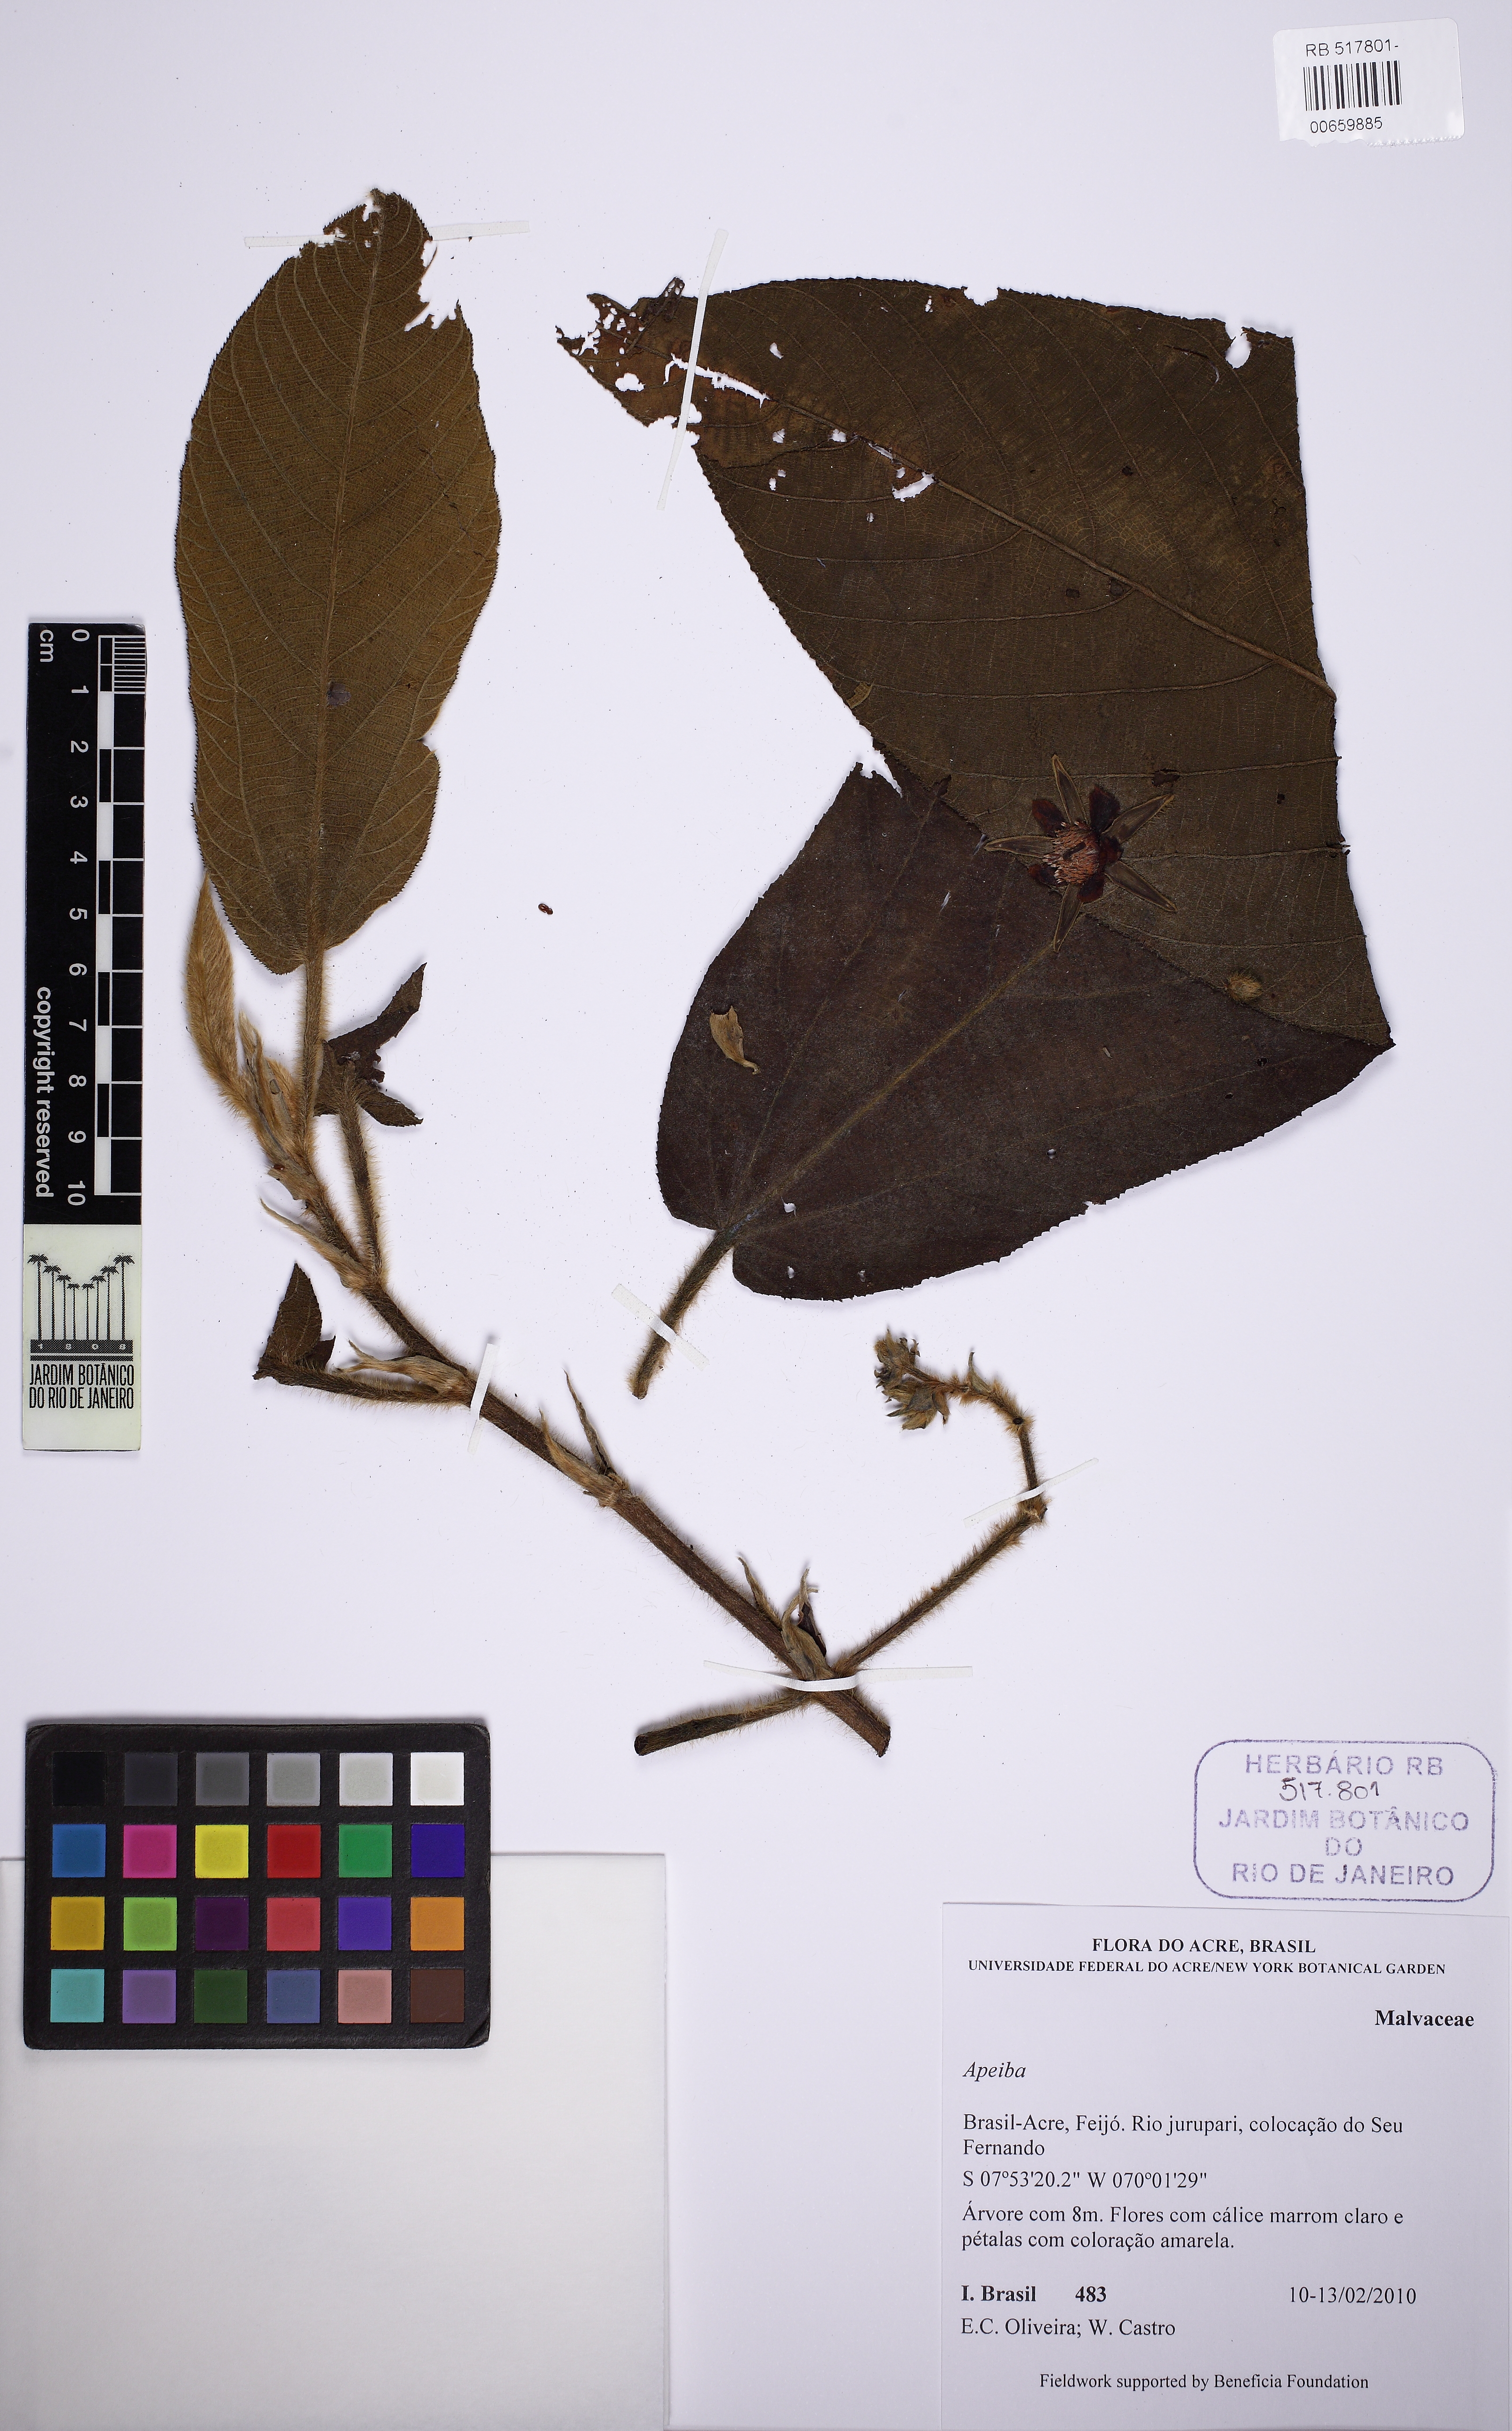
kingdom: Plantae
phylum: Tracheophyta
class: Magnoliopsida
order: Malvales
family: Malvaceae
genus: Apeiba
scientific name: Apeiba tibourbou
